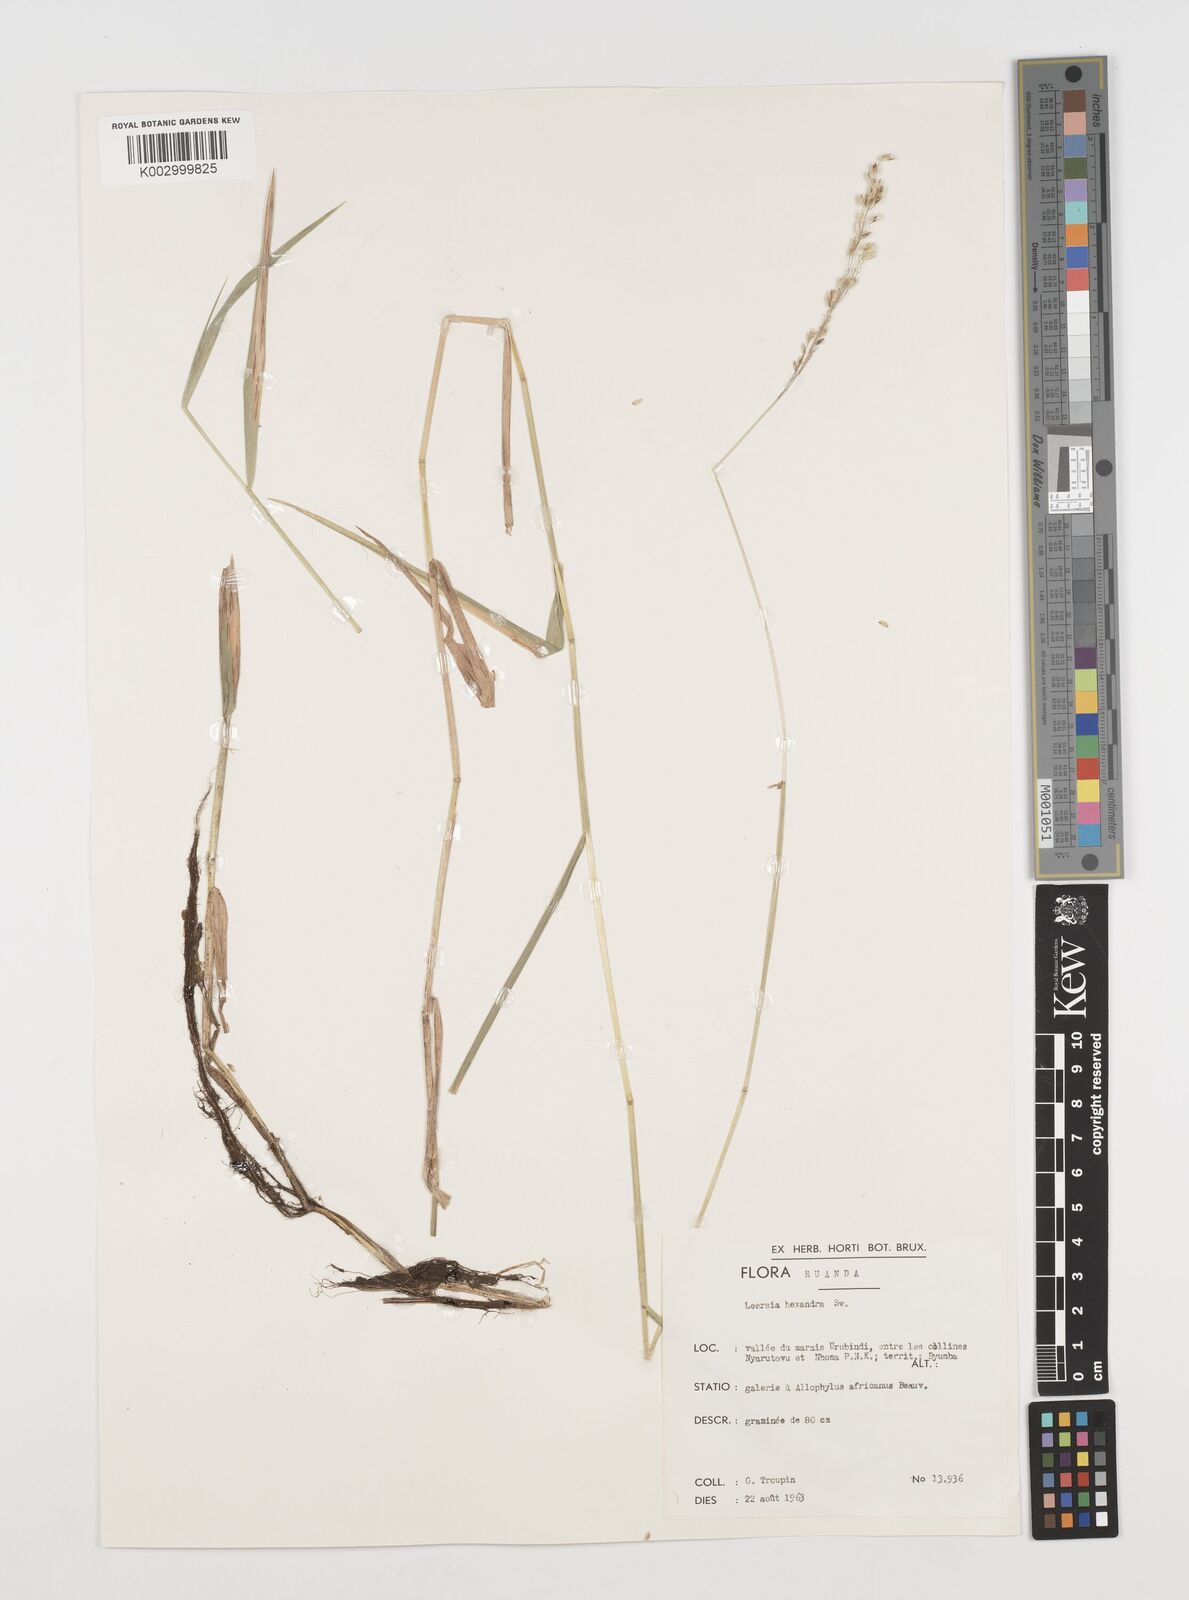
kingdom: Plantae
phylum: Tracheophyta
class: Liliopsida
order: Poales
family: Poaceae
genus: Leersia
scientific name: Leersia hexandra
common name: Southern cut grass
